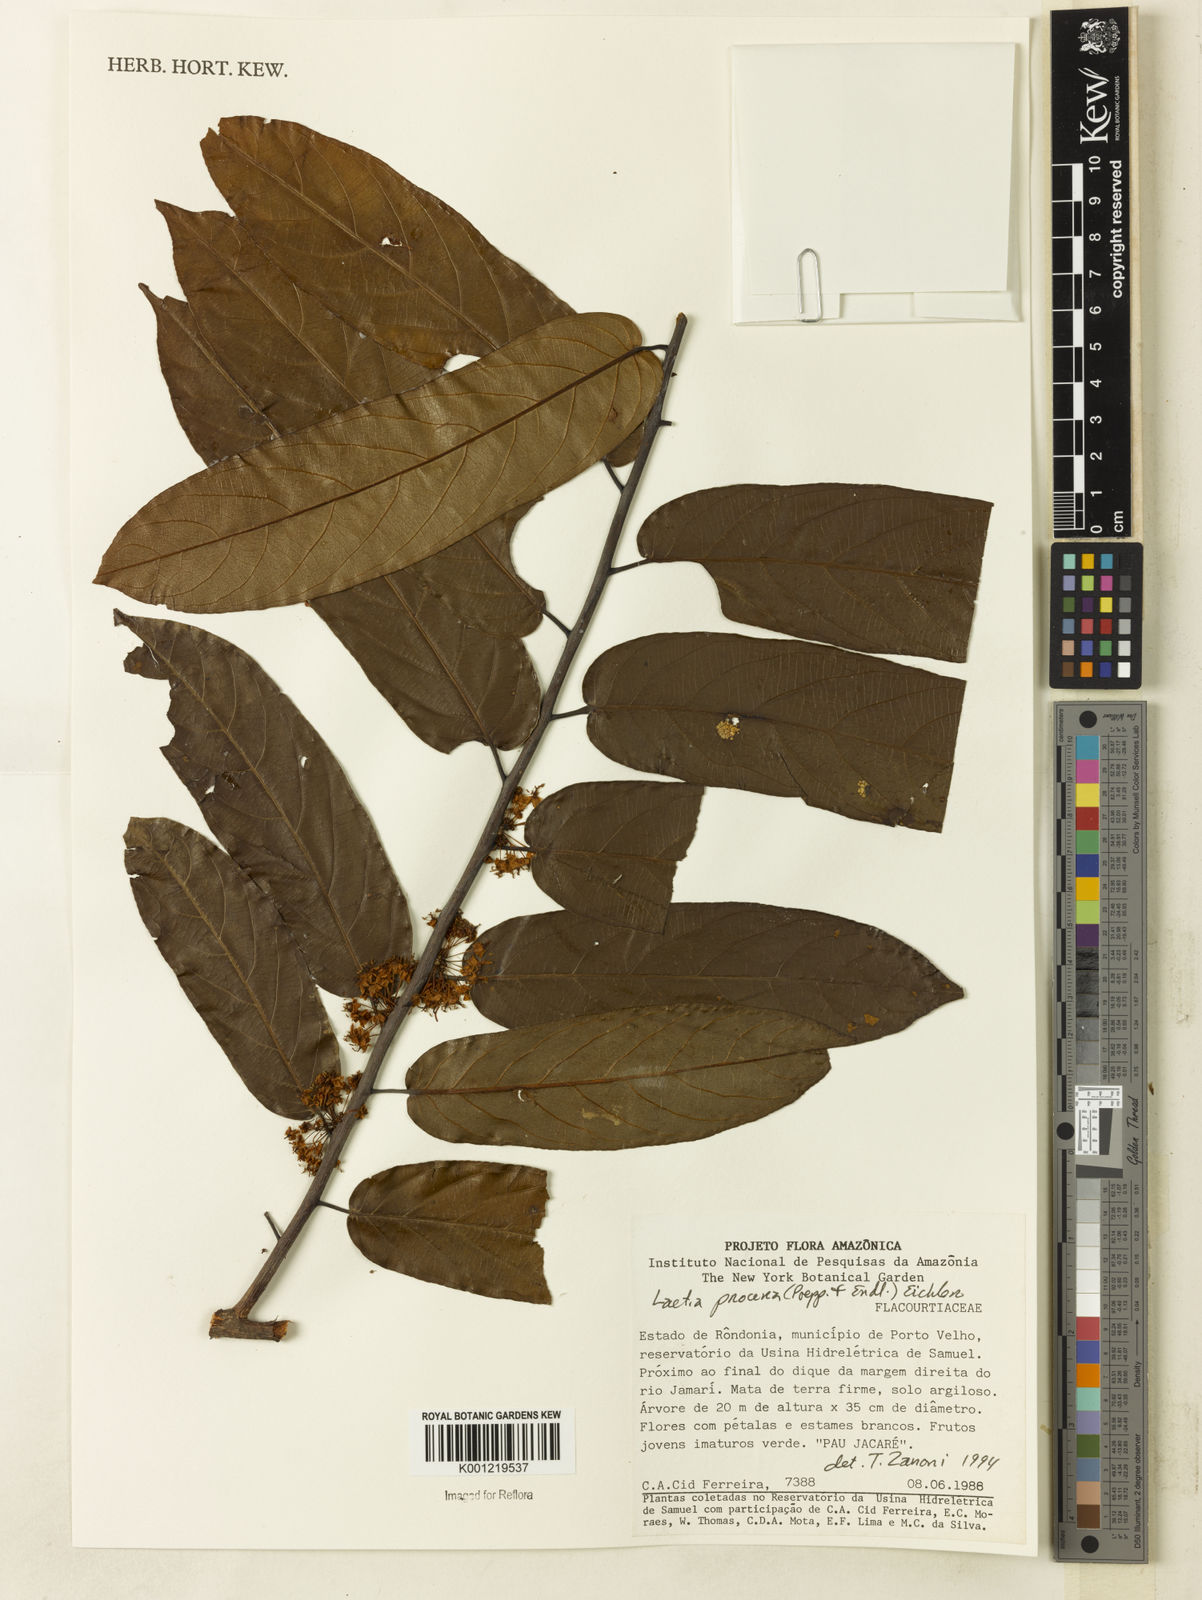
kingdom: Plantae
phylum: Tracheophyta
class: Magnoliopsida
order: Malpighiales
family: Salicaceae
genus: Casearia
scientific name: Casearia bicolor
